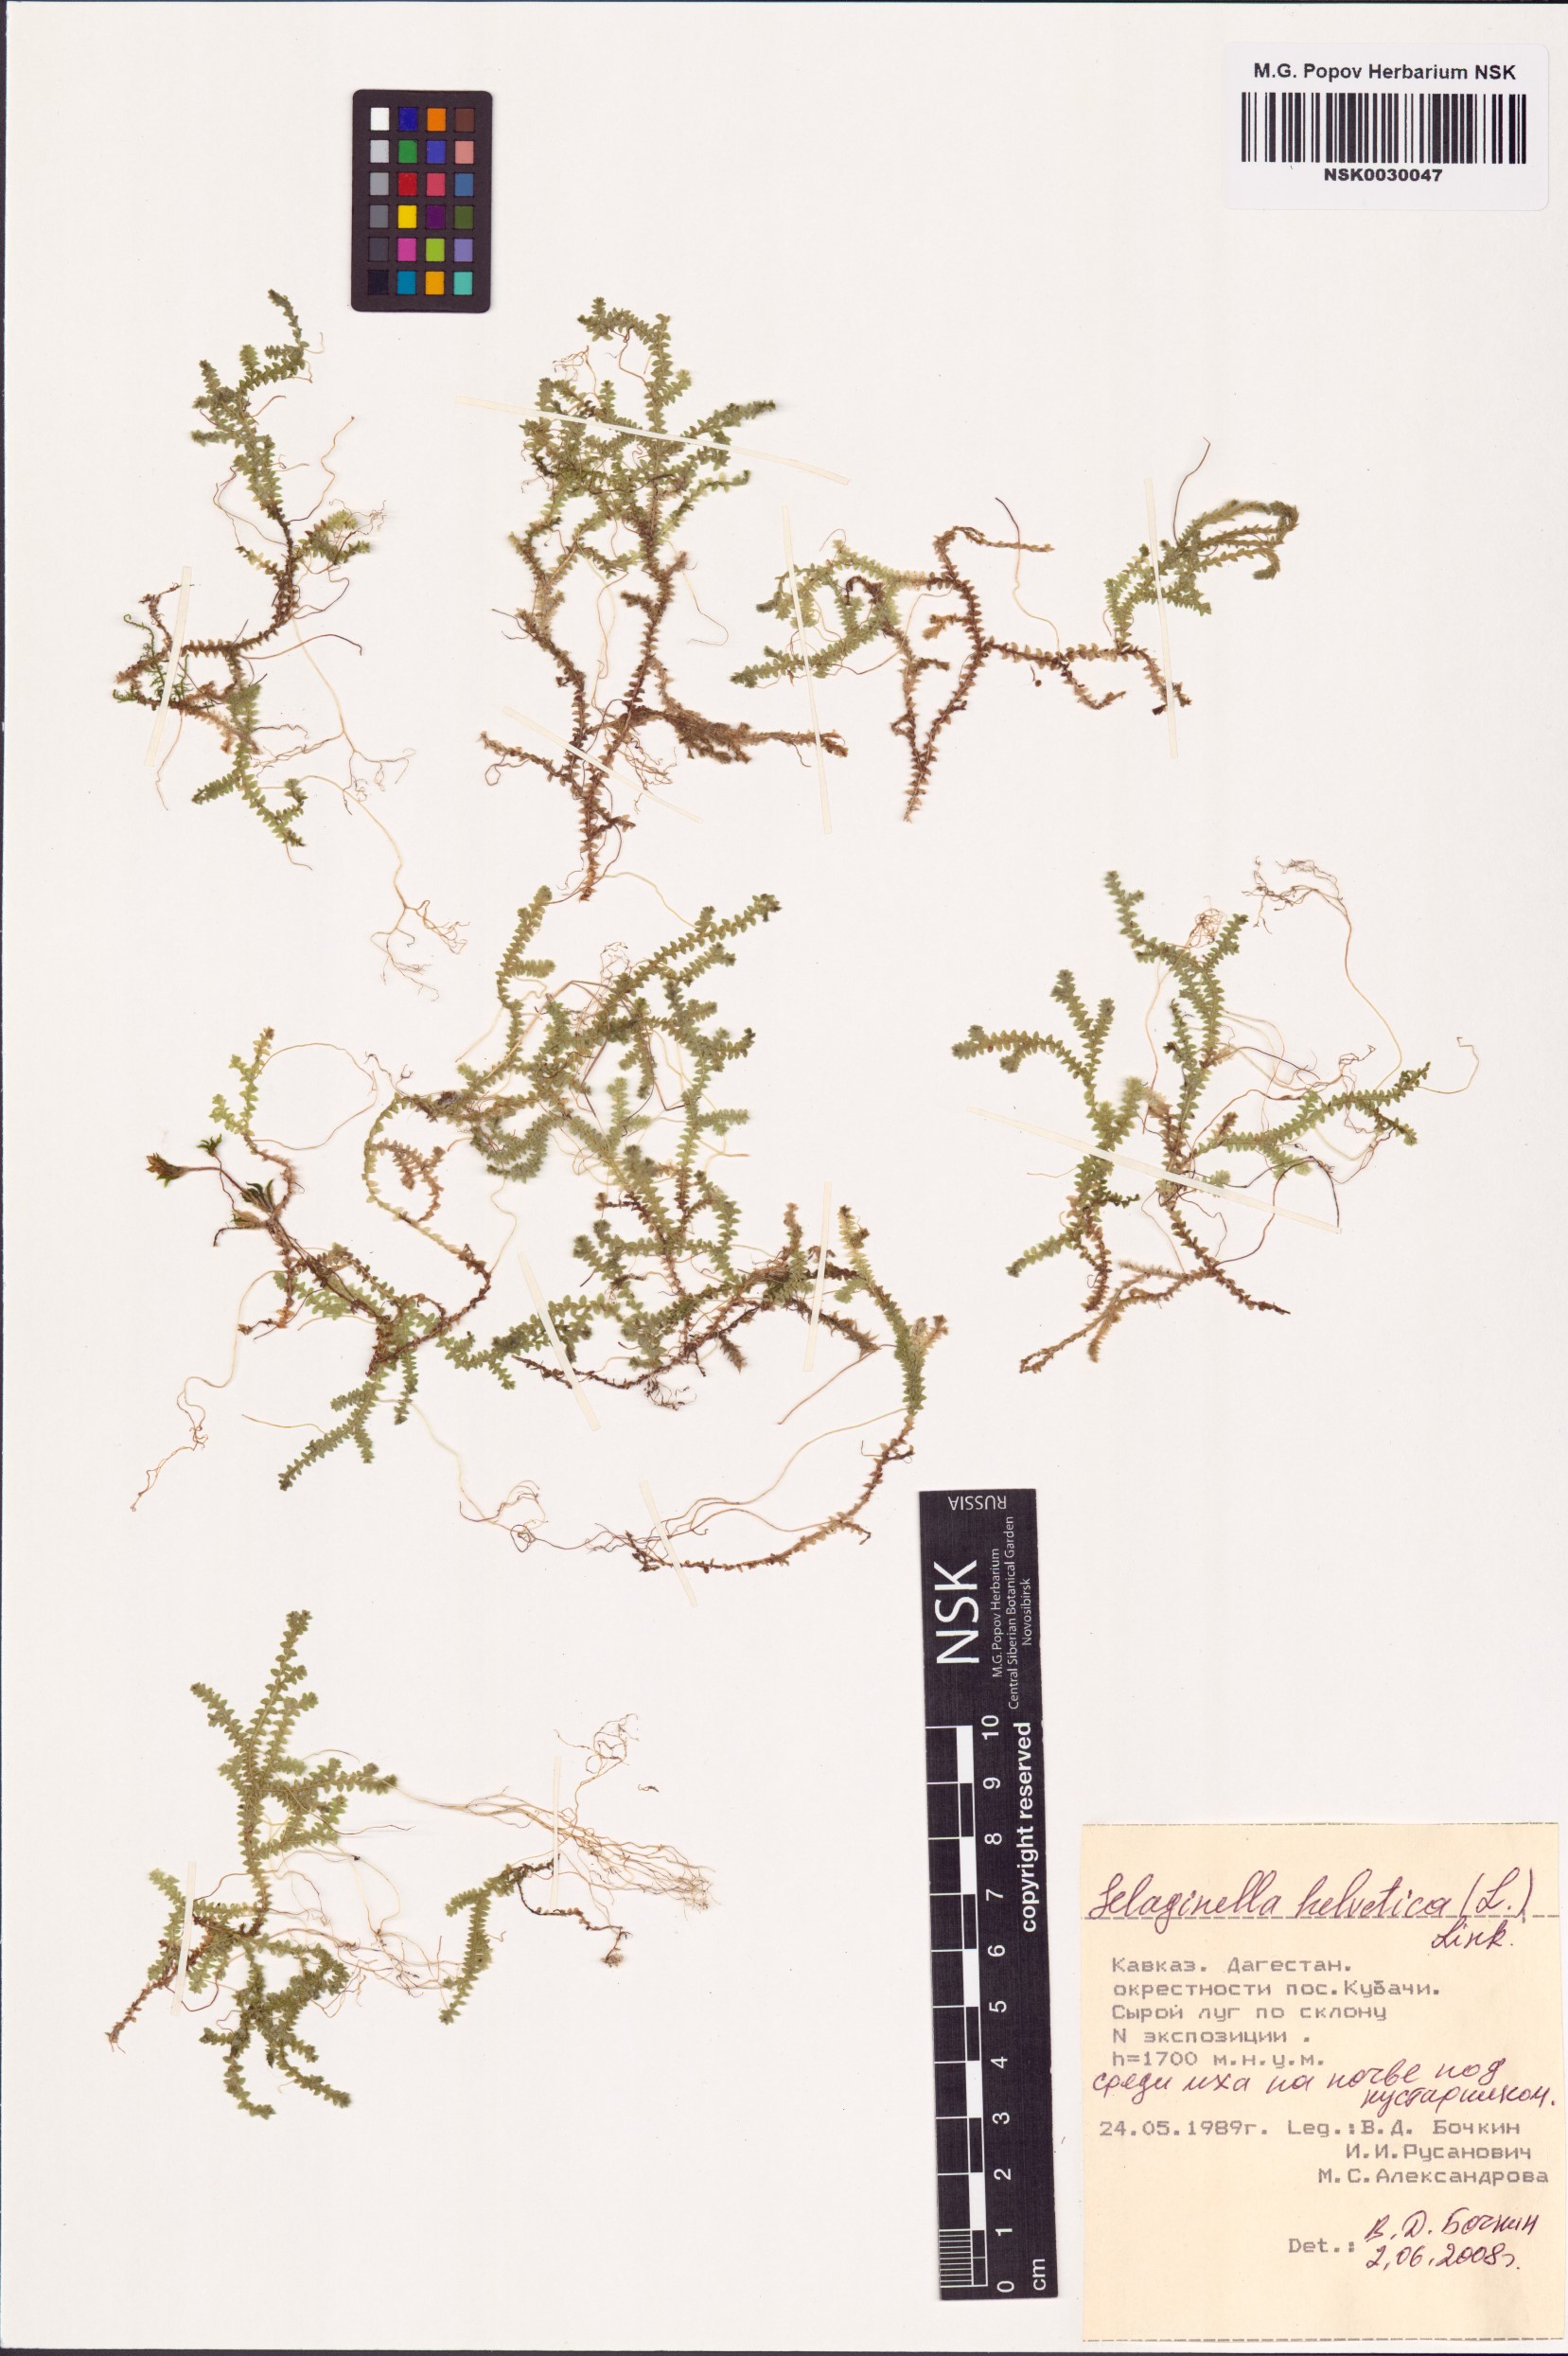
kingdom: Plantae
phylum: Tracheophyta
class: Lycopodiopsida
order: Selaginellales
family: Selaginellaceae
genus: Selaginella
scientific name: Selaginella helvetica
